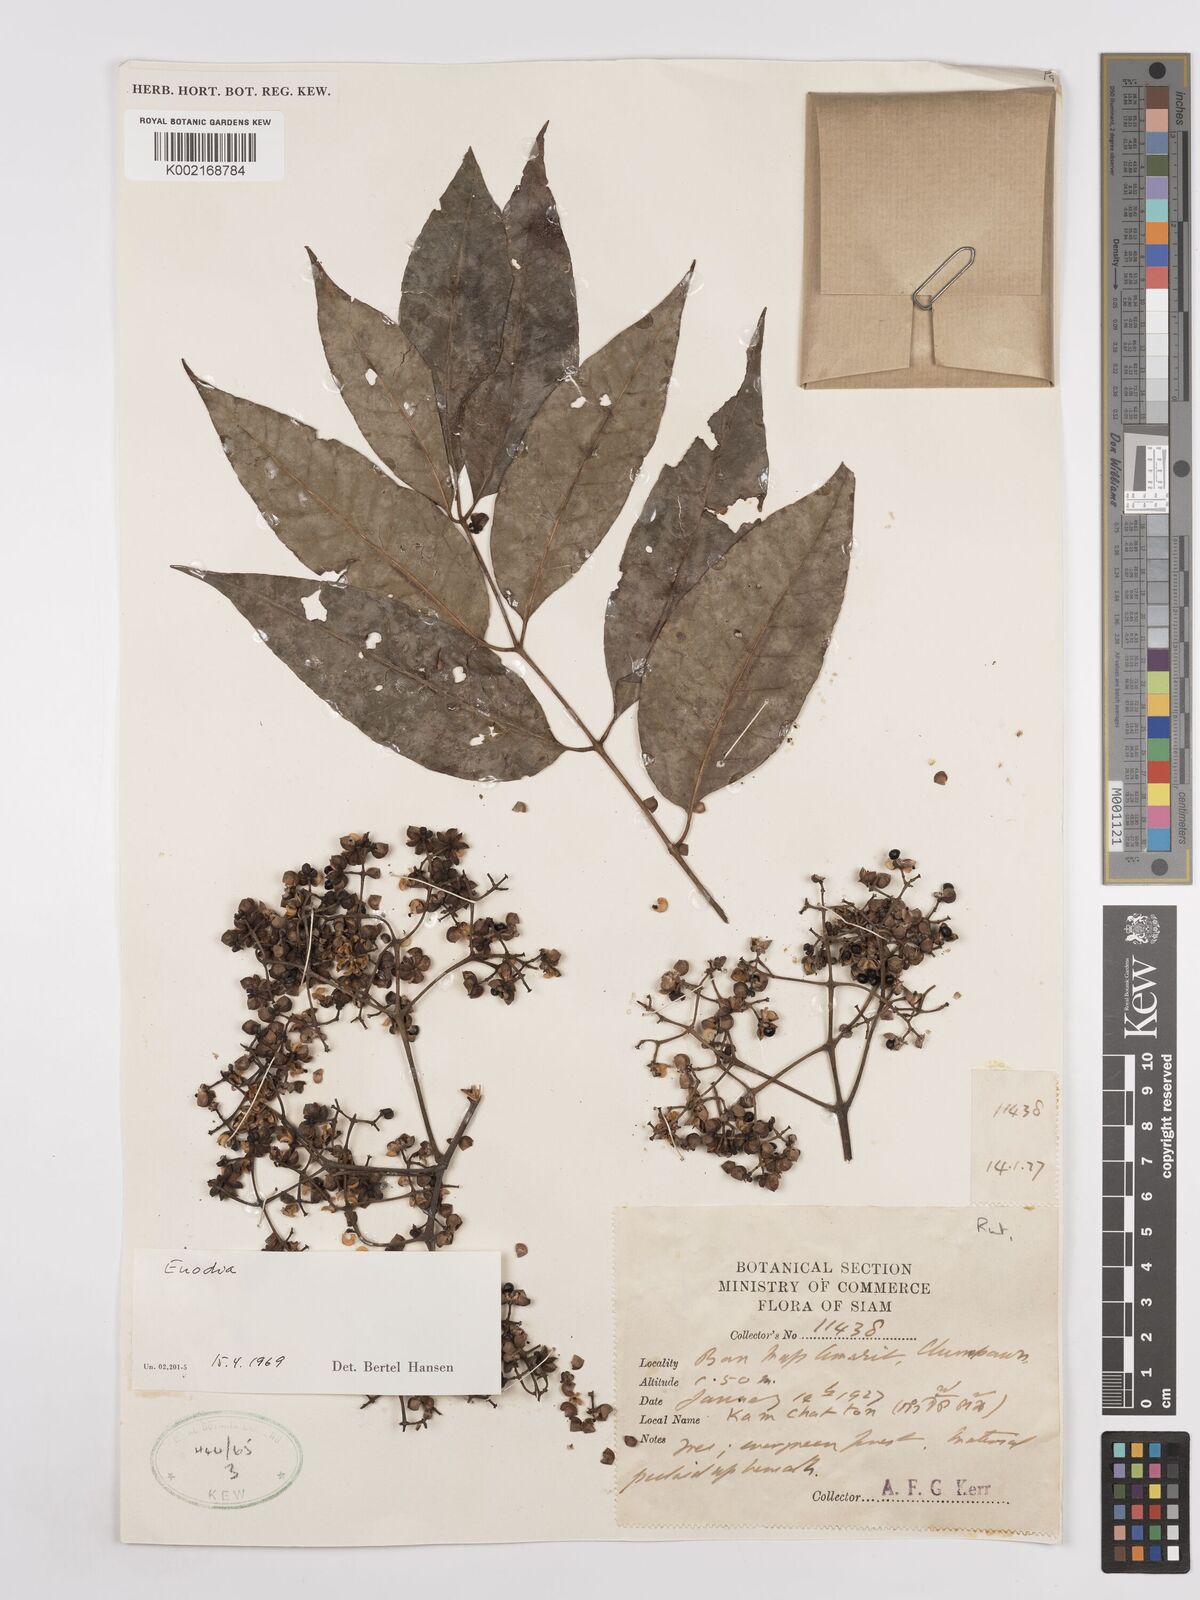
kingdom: Plantae
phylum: Tracheophyta
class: Magnoliopsida
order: Sapindales
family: Rutaceae
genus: Euodia
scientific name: Euodia
